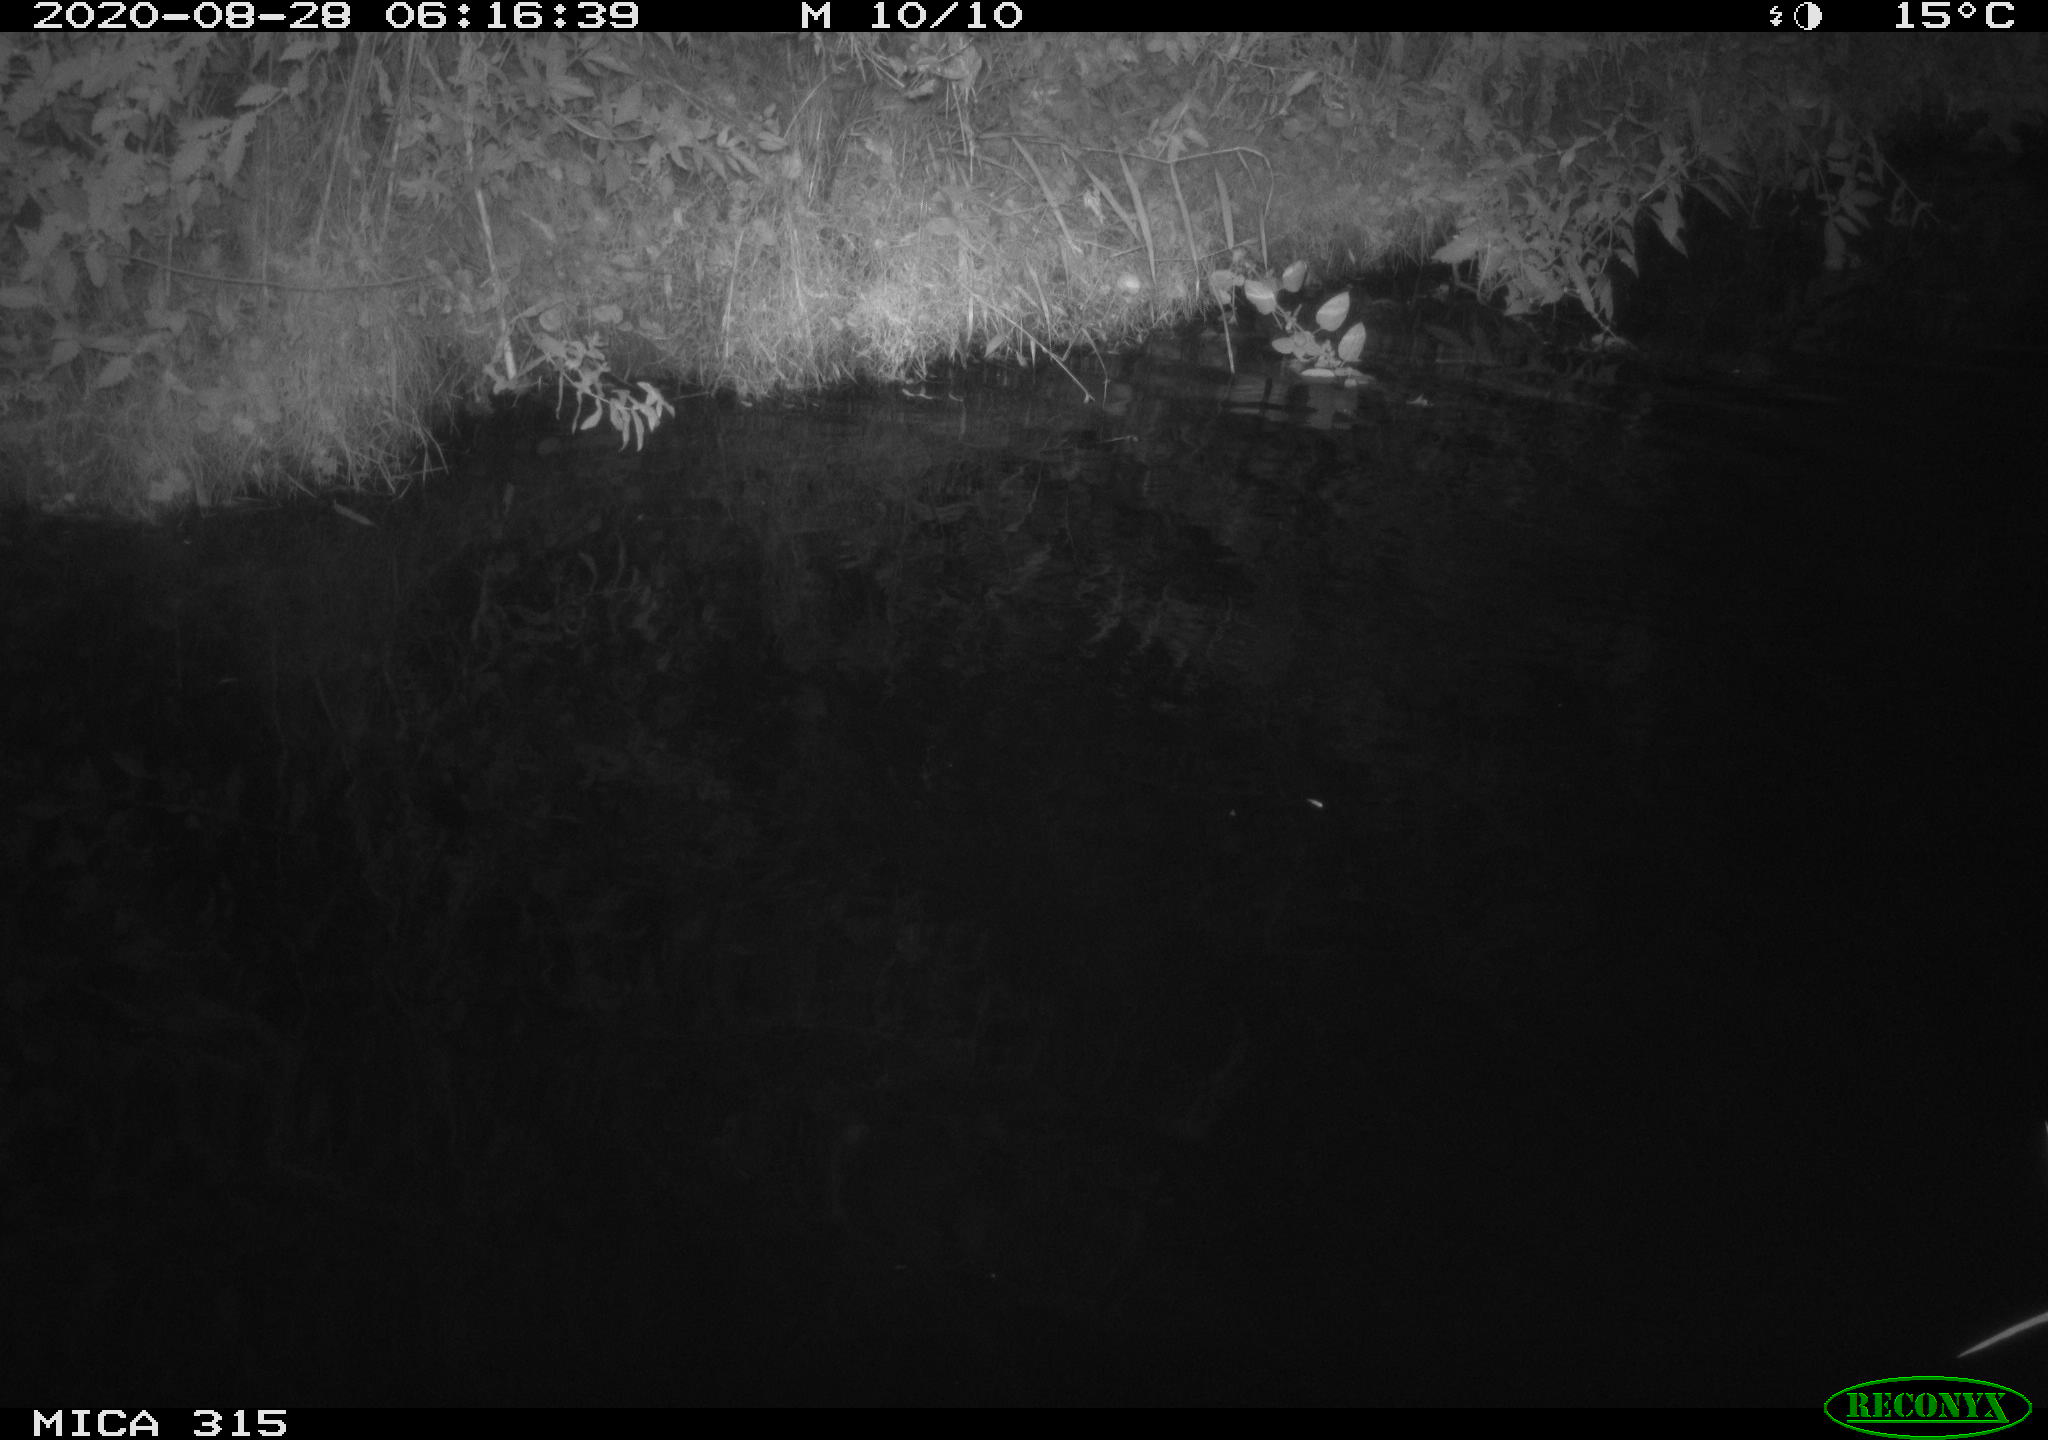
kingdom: Animalia
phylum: Chordata
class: Aves
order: Anseriformes
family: Anatidae
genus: Anas
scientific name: Anas platyrhynchos
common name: Mallard
